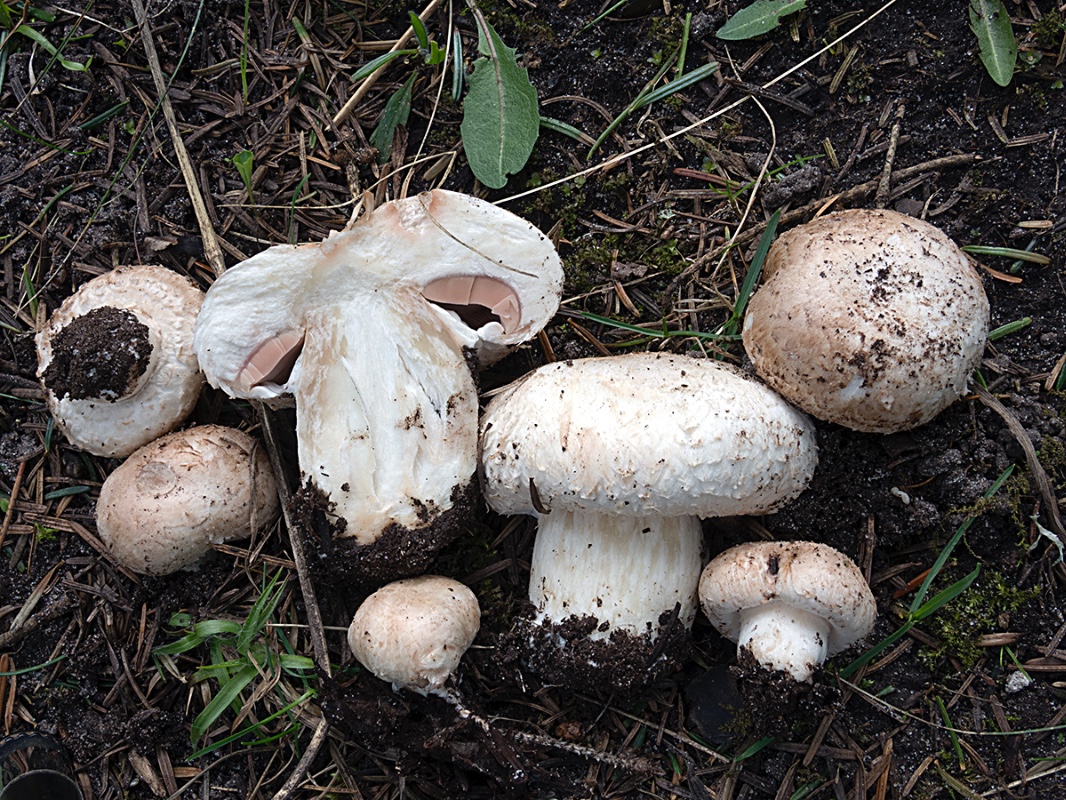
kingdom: Fungi
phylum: Basidiomycota
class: Agaricomycetes
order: Agaricales
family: Agaricaceae
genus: Agaricus
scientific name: Agaricus
